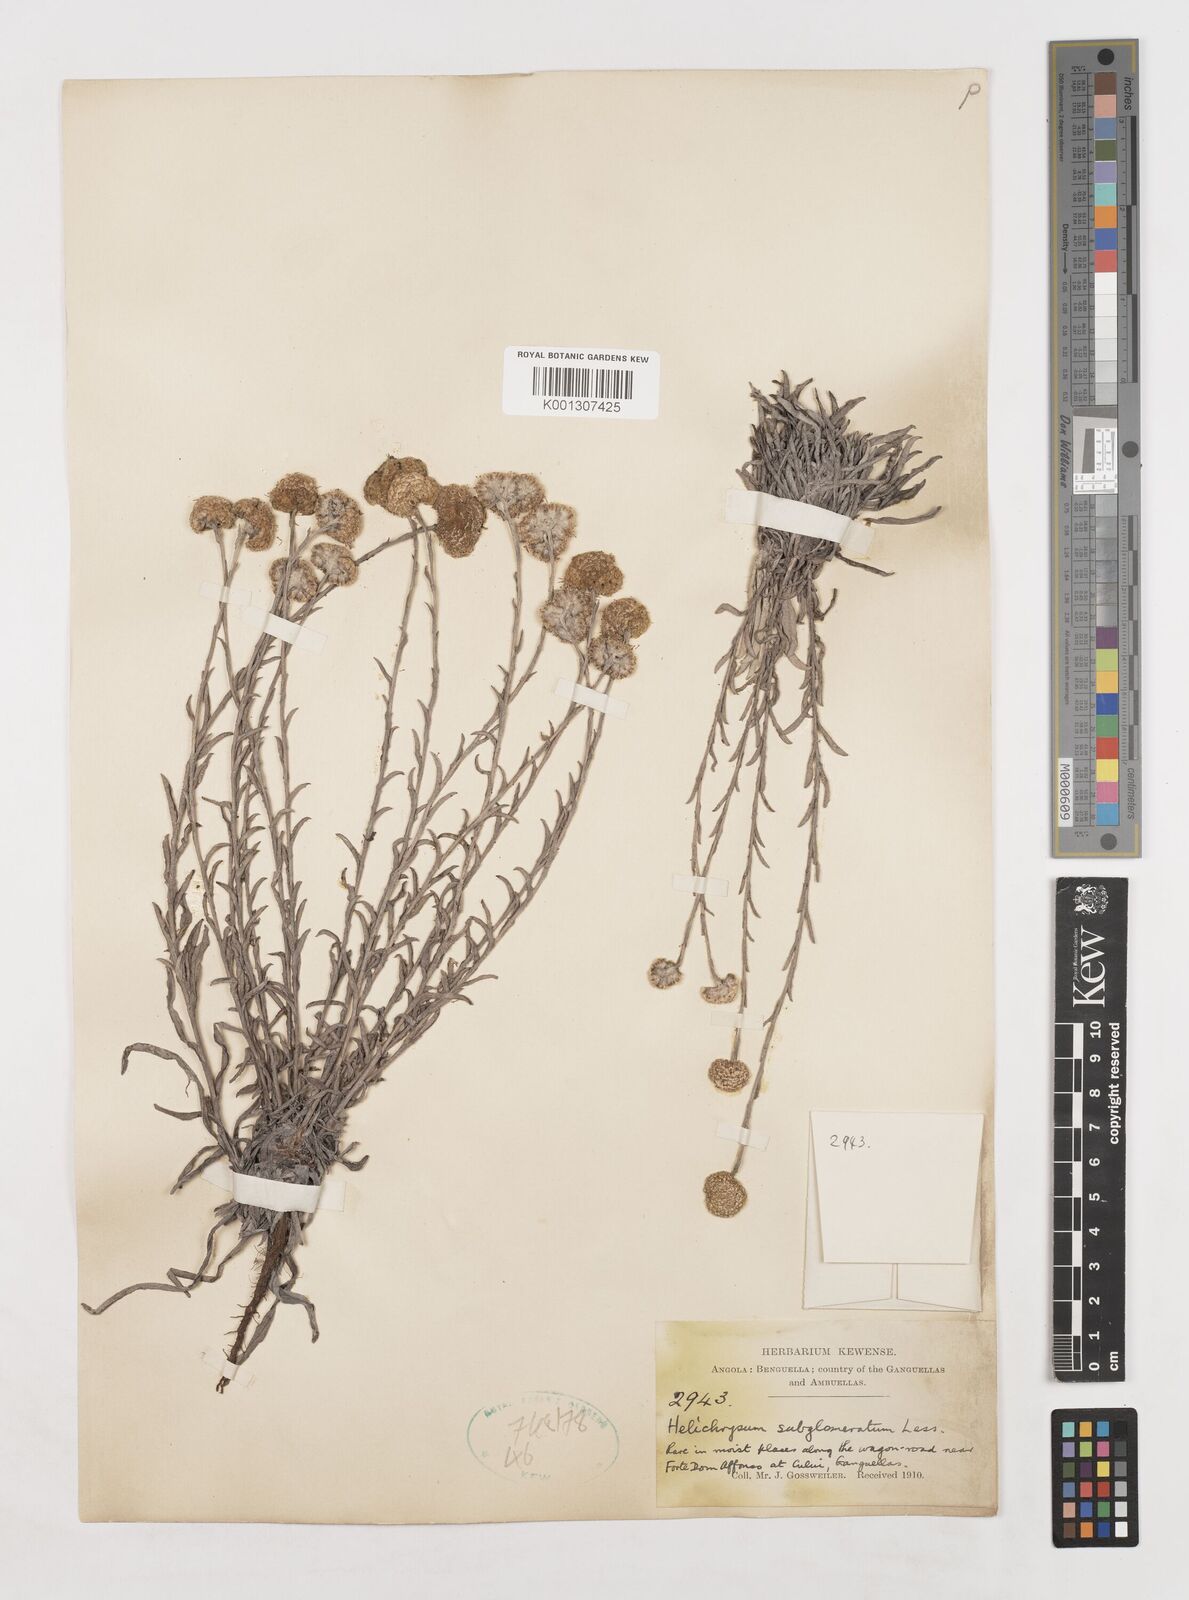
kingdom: Plantae
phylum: Tracheophyta
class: Magnoliopsida
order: Asterales
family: Asteraceae
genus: Helichrysum
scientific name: Helichrysum
